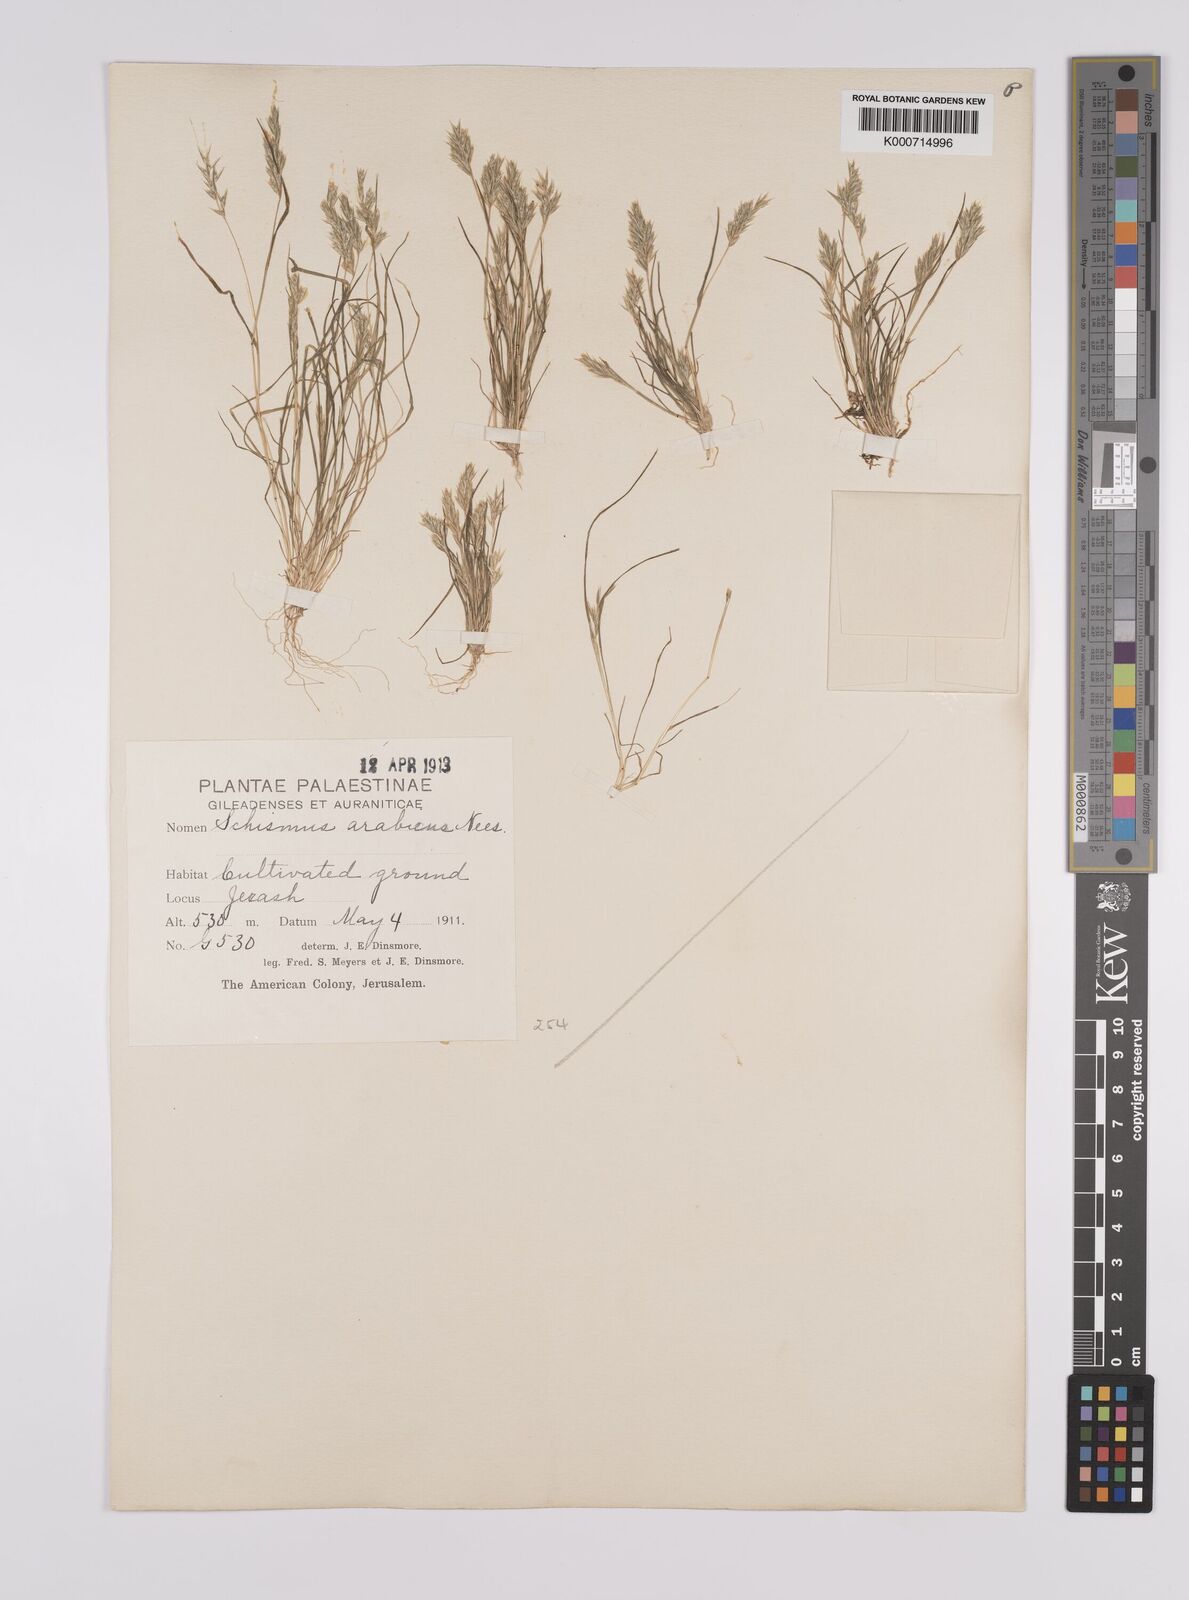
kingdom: Plantae
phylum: Tracheophyta
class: Liliopsida
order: Poales
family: Poaceae
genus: Schismus
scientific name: Schismus arabicus
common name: Arabian schismus
